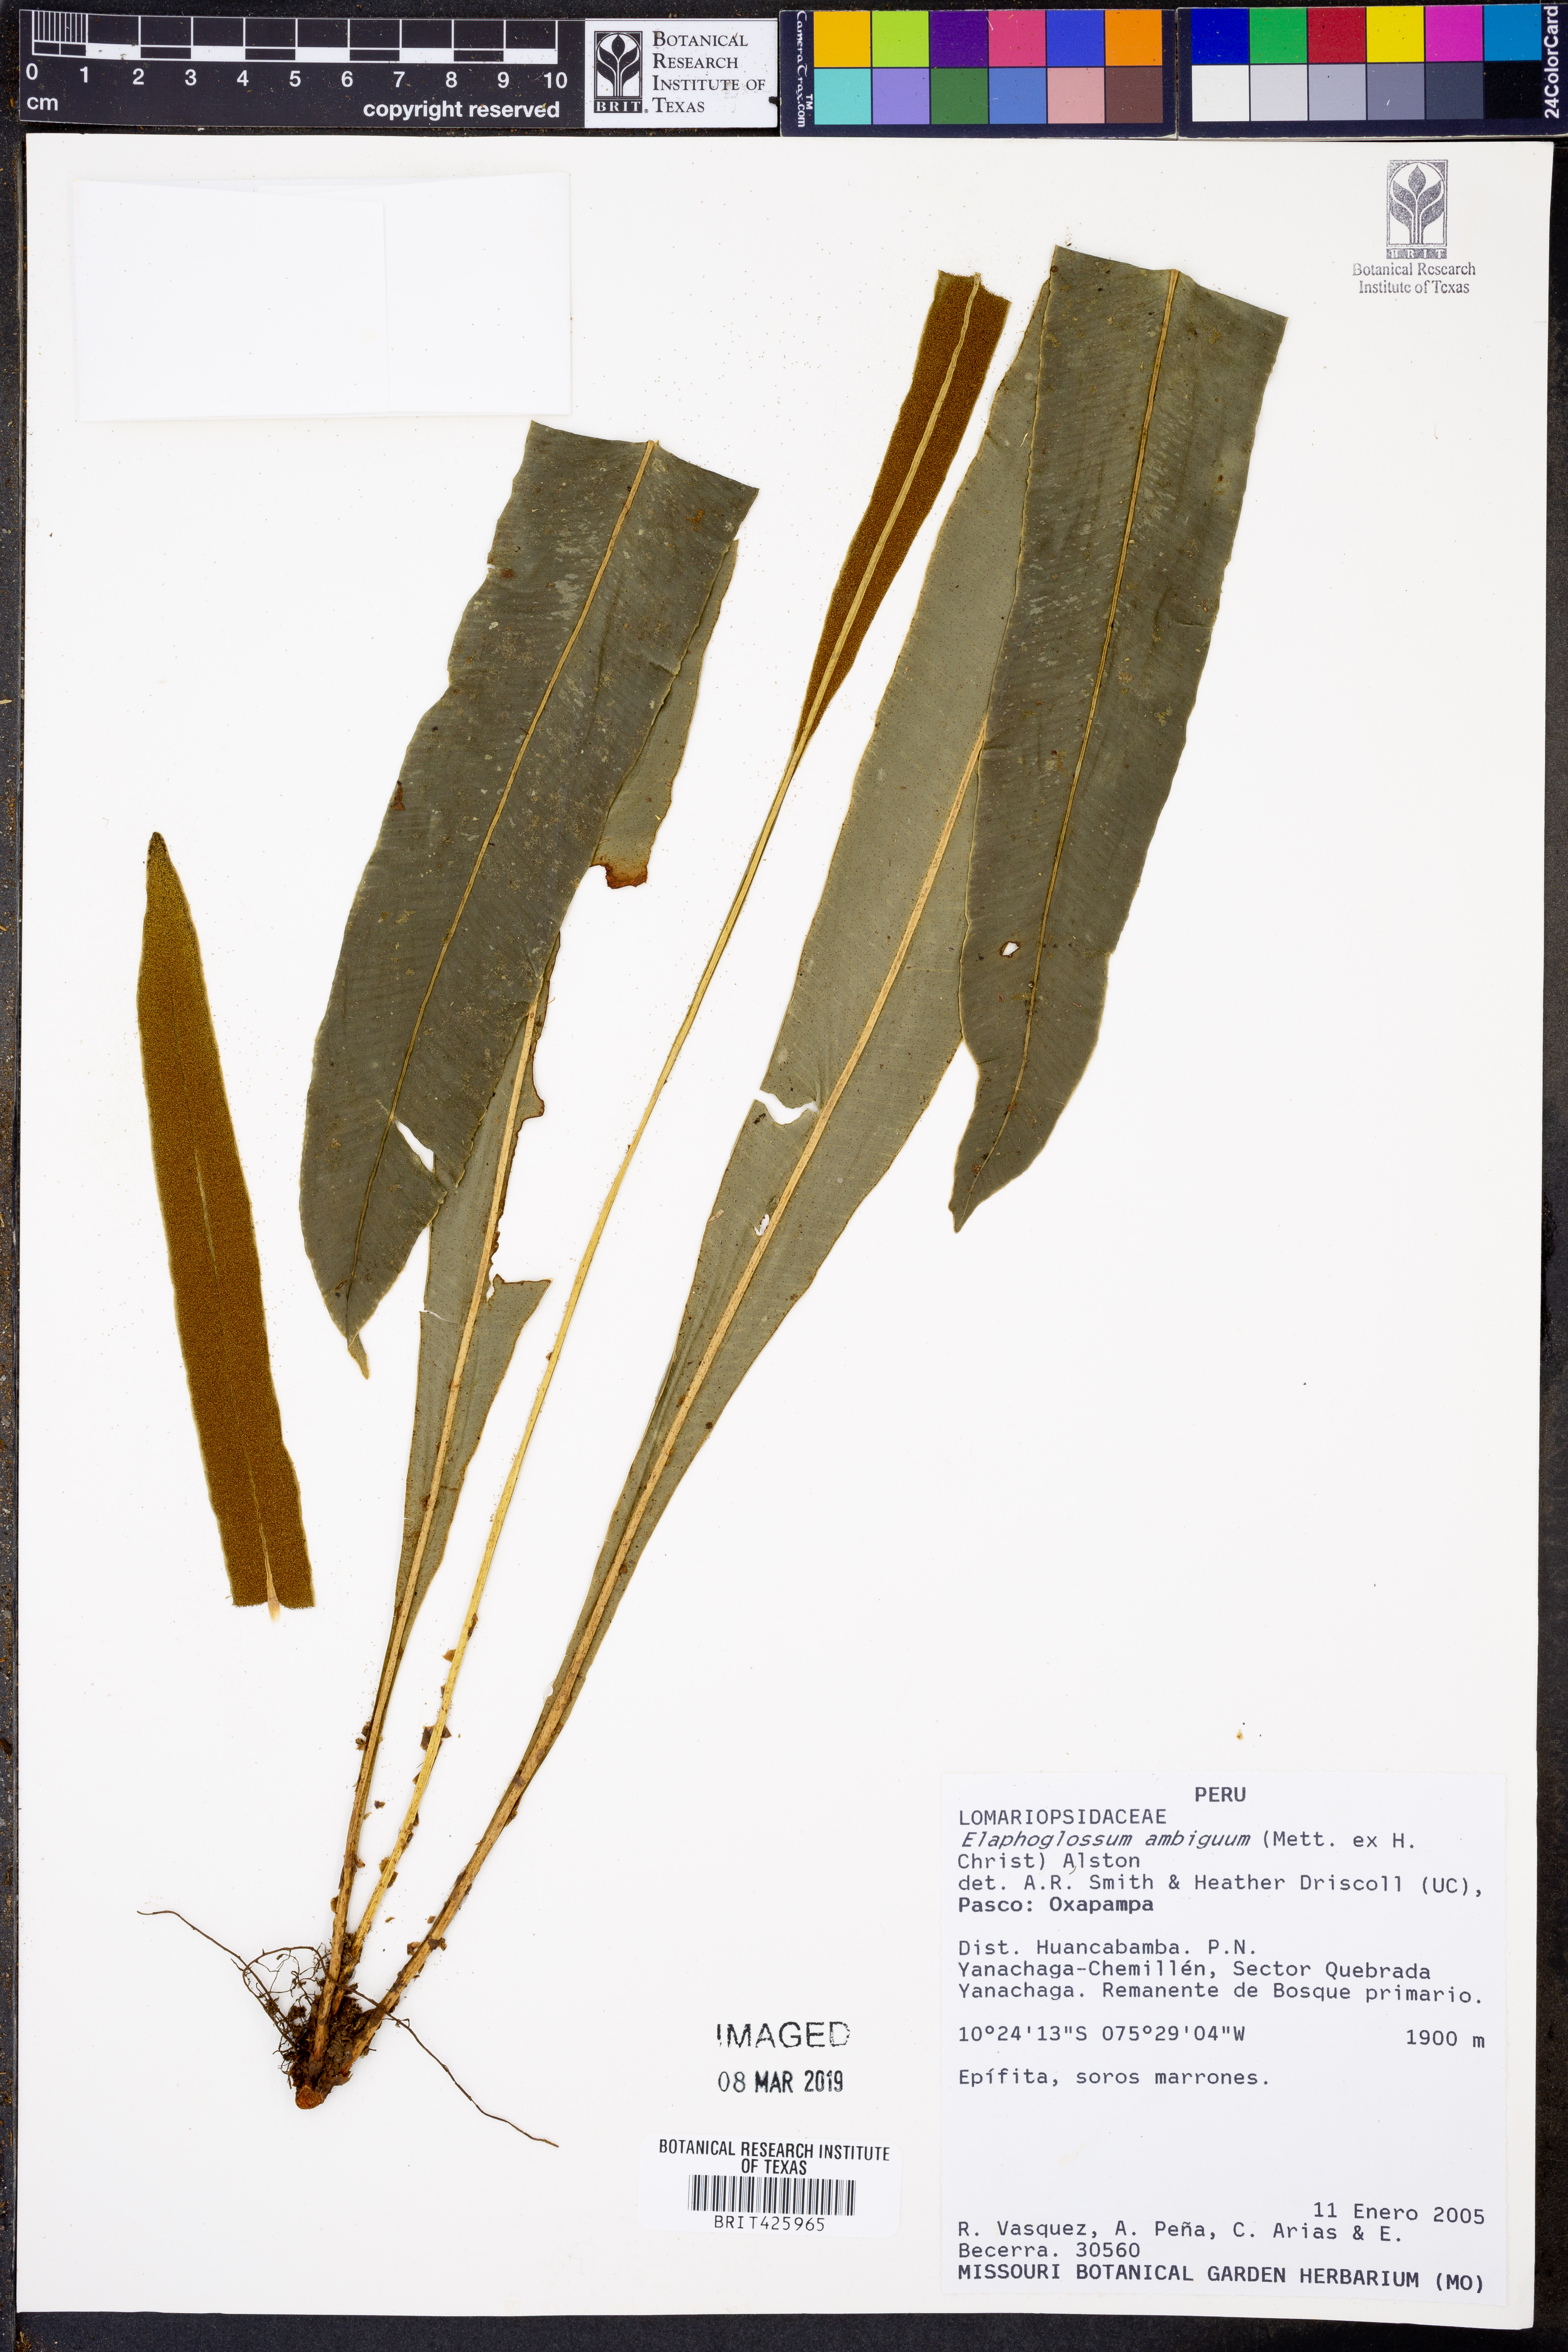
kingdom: Plantae
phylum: Tracheophyta
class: Polypodiopsida
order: Polypodiales
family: Dryopteridaceae
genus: Elaphoglossum
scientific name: Elaphoglossum nidiformis
